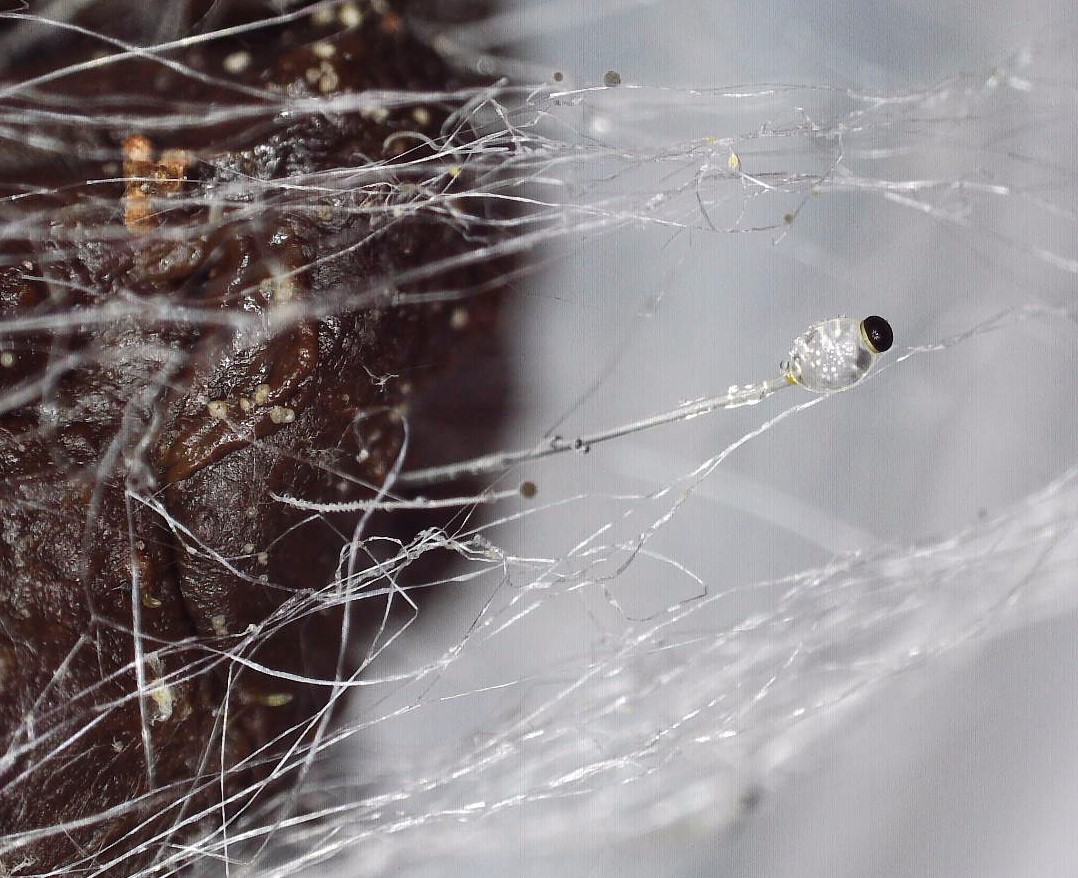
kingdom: Fungi
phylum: Mucoromycota
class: Mucoromycetes
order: Mucorales
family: Pilobolaceae
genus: Pilobolus
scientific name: Pilobolus crystallinus
